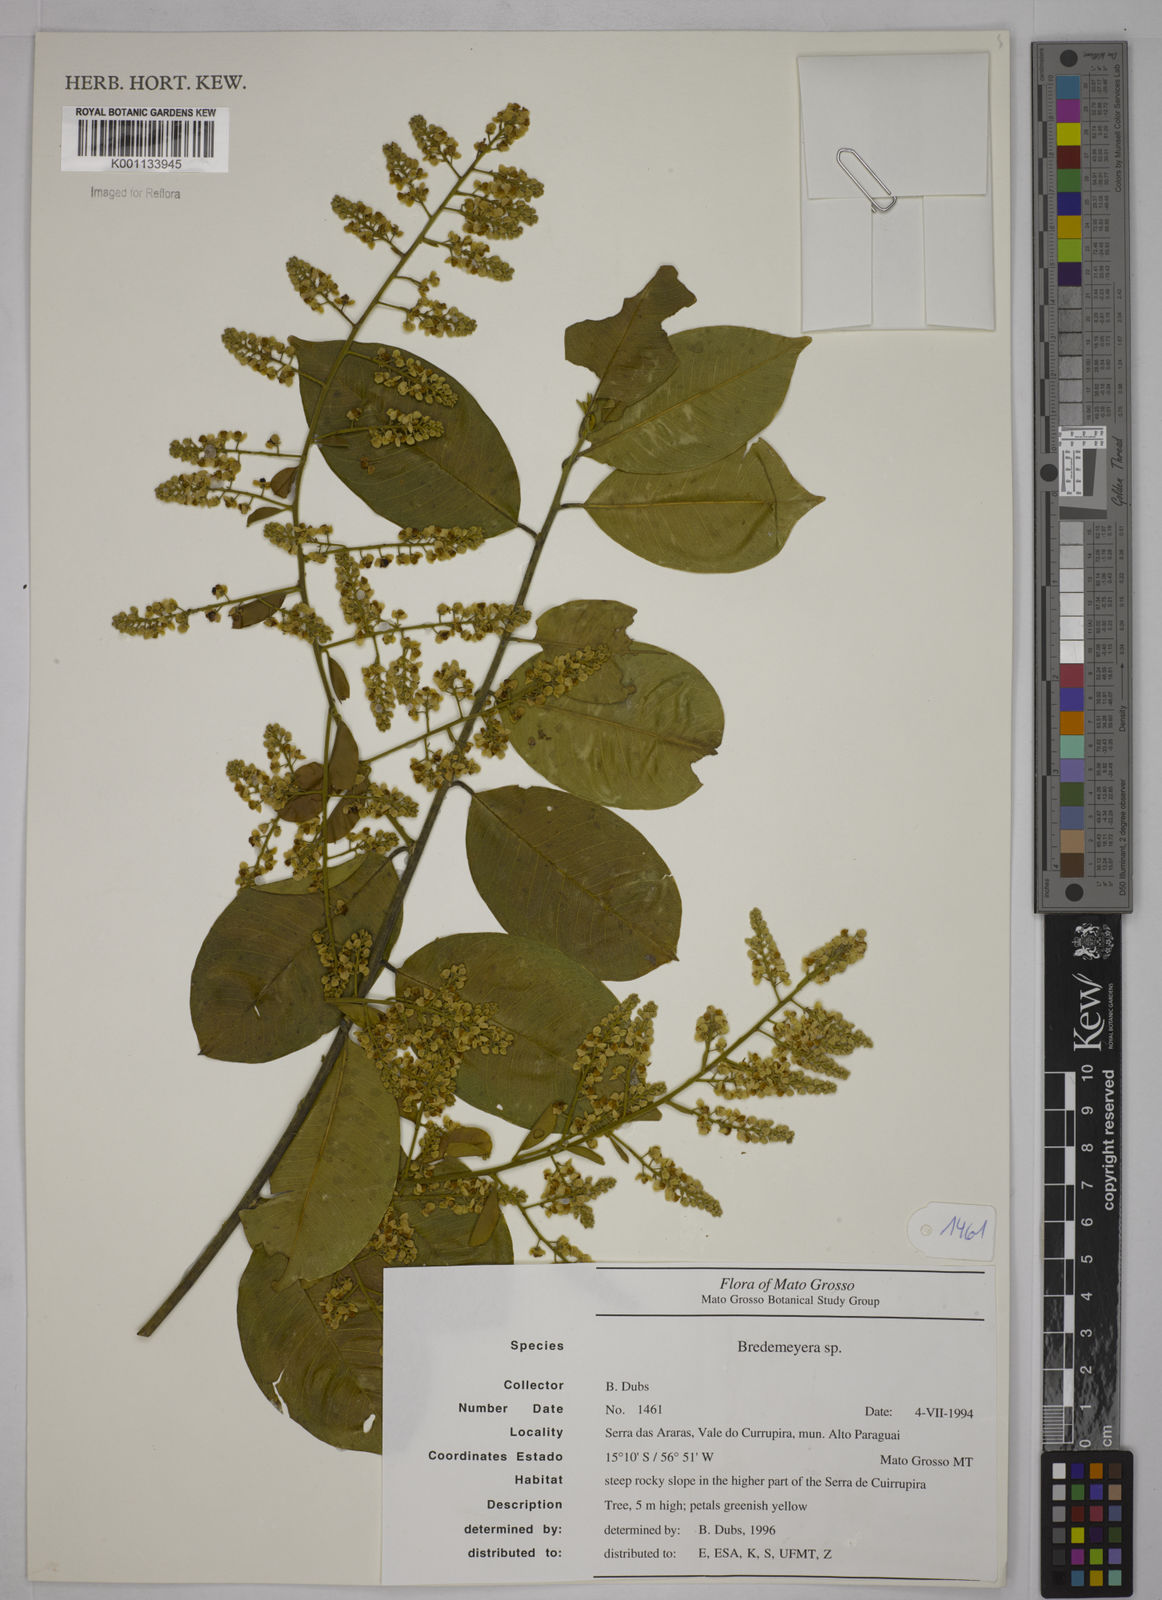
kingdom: Plantae
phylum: Tracheophyta
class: Magnoliopsida
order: Fabales
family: Polygalaceae
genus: Bredemeyera
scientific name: Bredemeyera
